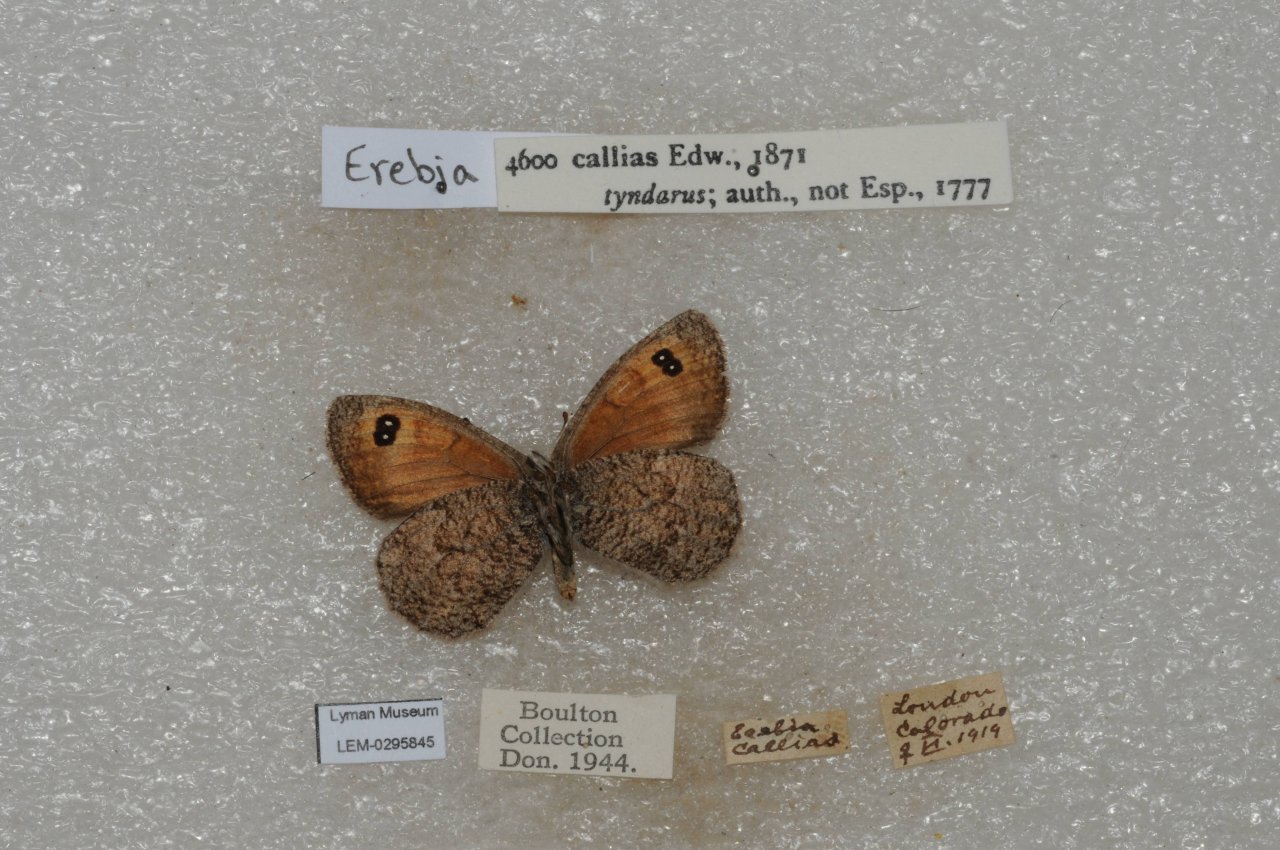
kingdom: Animalia
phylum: Arthropoda
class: Insecta
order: Lepidoptera
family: Nymphalidae
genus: Erebia
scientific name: Erebia tyndarus
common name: Colorado Alpine
